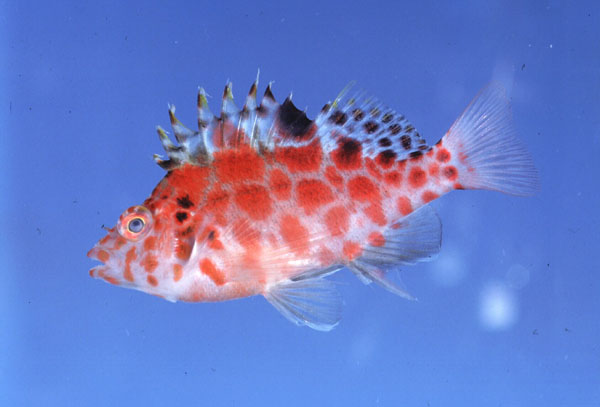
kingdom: Animalia
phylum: Chordata
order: Perciformes
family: Cirrhitidae
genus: Cirrhitichthys
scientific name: Cirrhitichthys aprinus
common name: Blotched hawkfish
